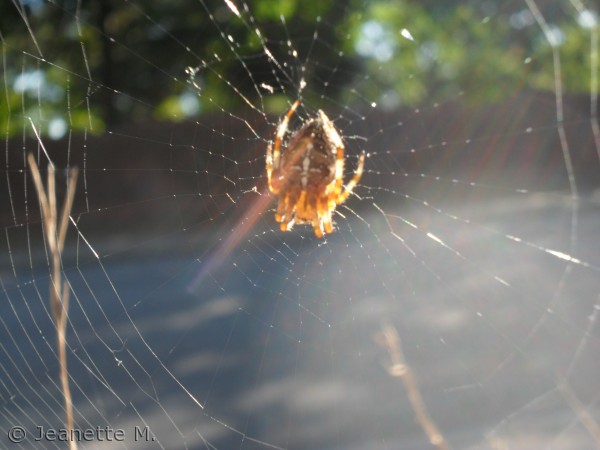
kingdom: Animalia
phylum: Arthropoda
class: Arachnida
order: Araneae
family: Araneidae
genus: Araneus
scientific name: Araneus diadematus
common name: Korsedderkop
